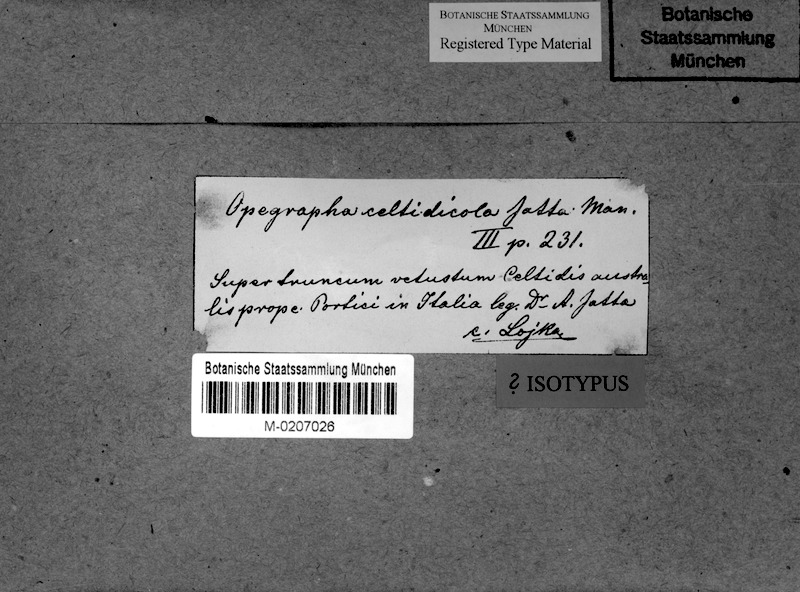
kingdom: Fungi
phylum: Ascomycota
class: Arthoniomycetes
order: Arthoniales
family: Opegraphaceae
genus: Opegrapha
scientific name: Opegrapha celtidicola
